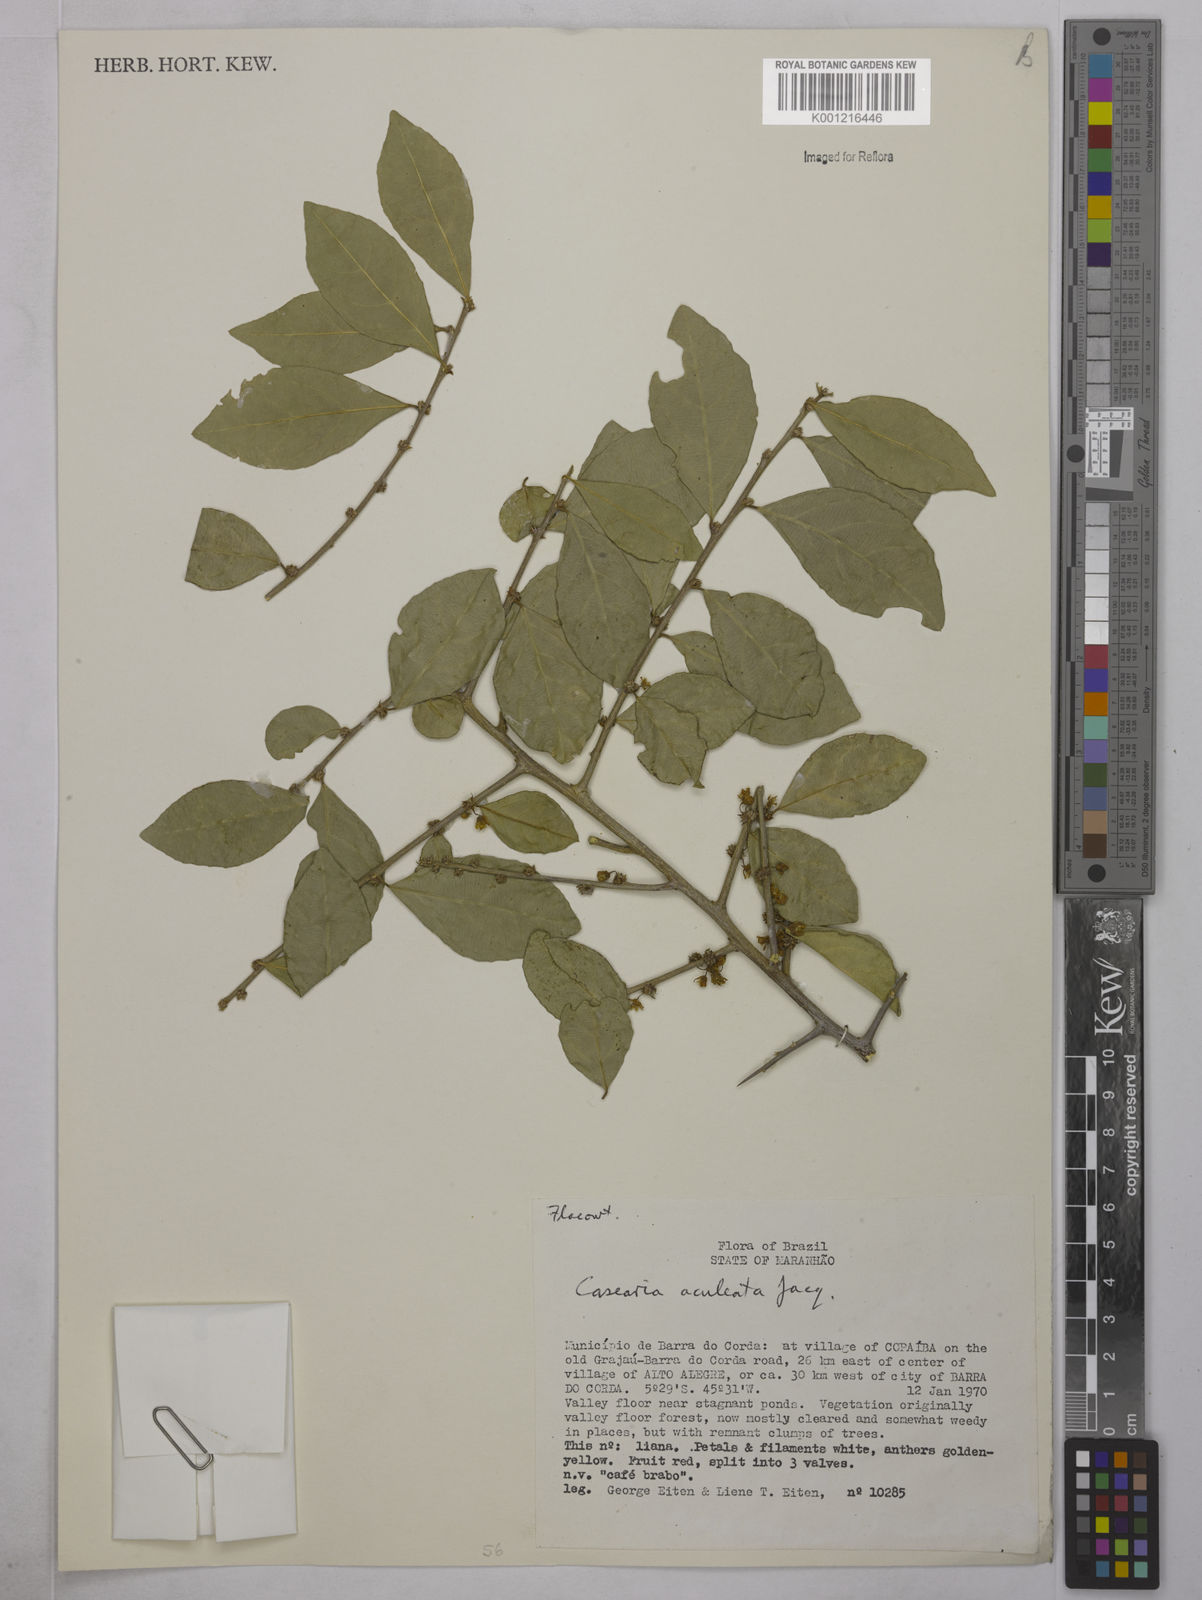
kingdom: Plantae
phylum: Tracheophyta
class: Magnoliopsida
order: Malpighiales
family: Salicaceae
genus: Casearia
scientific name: Casearia aculeata
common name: Cockspur
